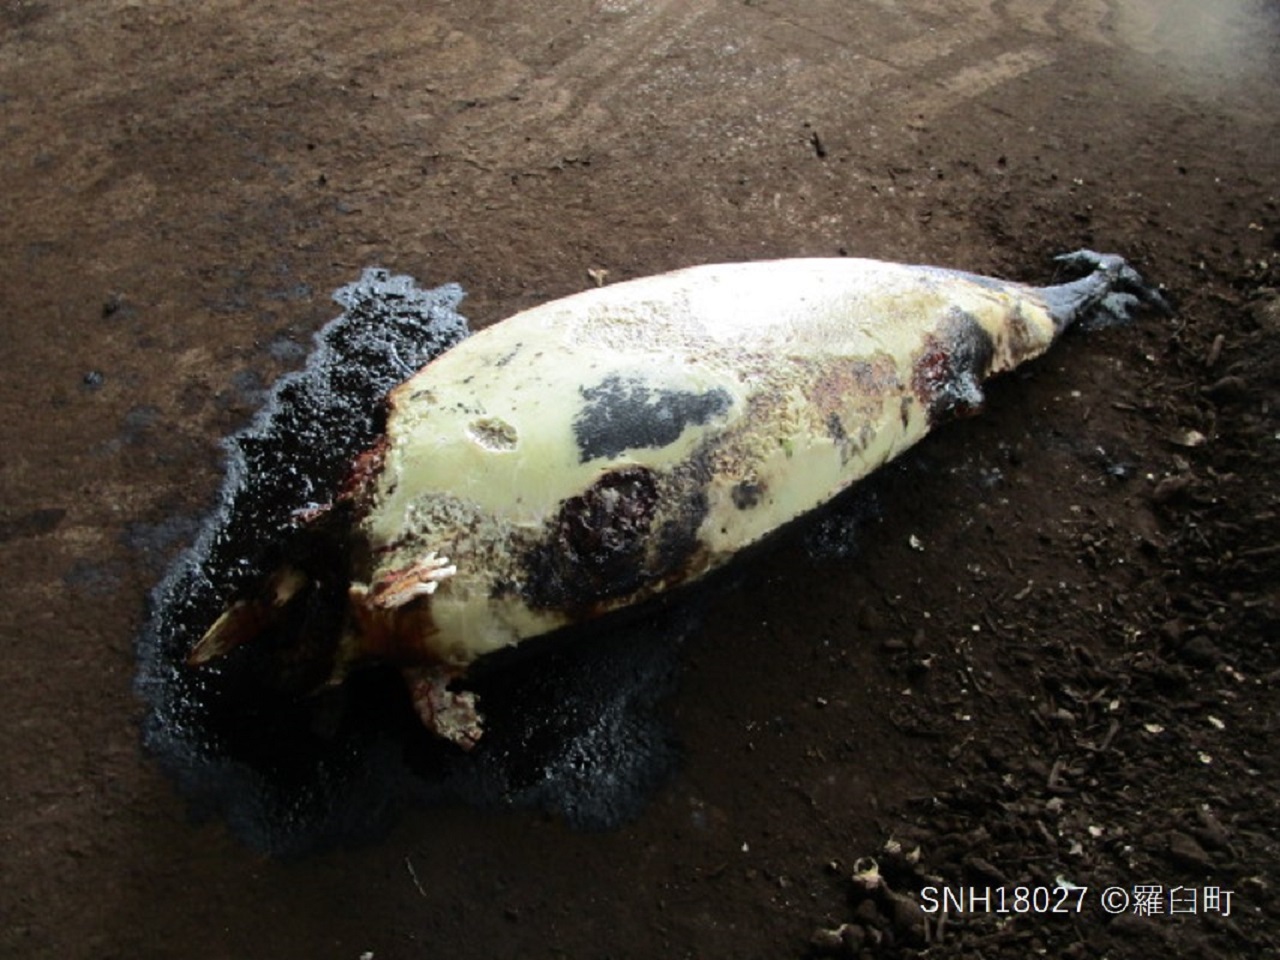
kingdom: Animalia
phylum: Chordata
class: Mammalia
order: Cetacea
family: Delphinidae
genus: Lagenorhynchus
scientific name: Lagenorhynchus obliquidens
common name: Pacific white-sided dolphin
